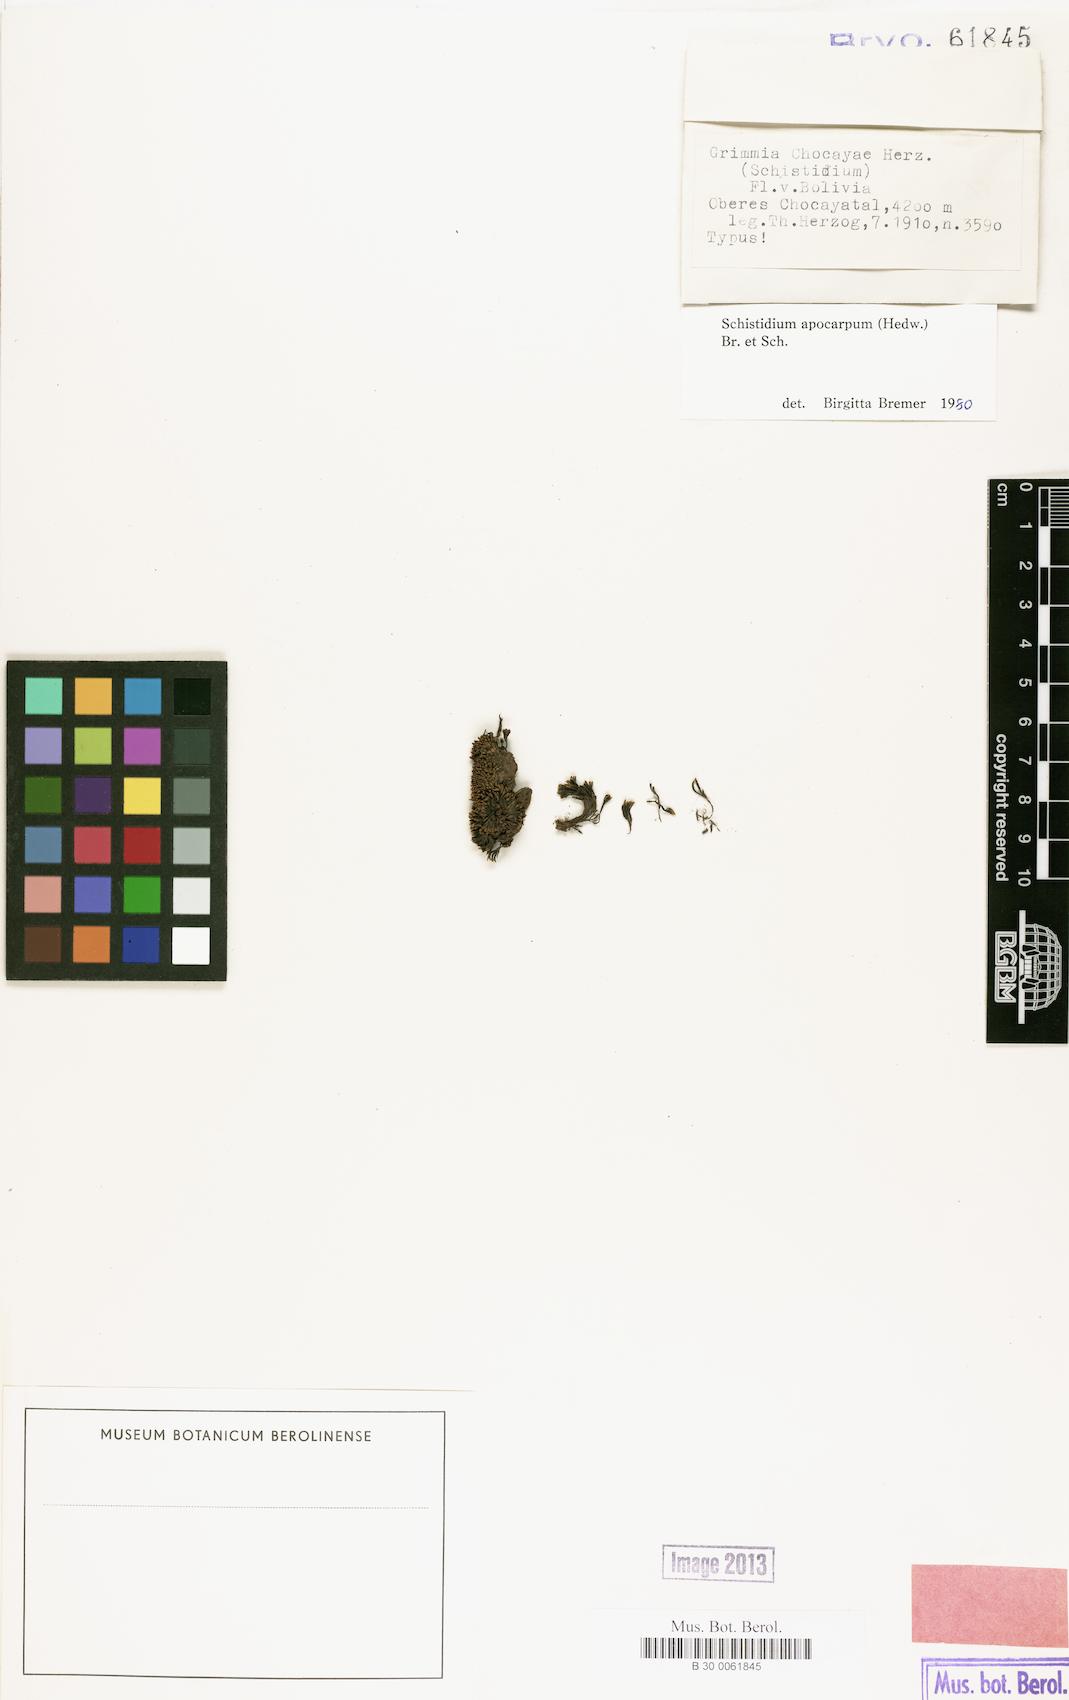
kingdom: Plantae
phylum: Bryophyta
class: Bryopsida
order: Grimmiales
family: Grimmiaceae
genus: Schistidium
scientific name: Schistidium apocarpum
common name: Radiate bloom moss
